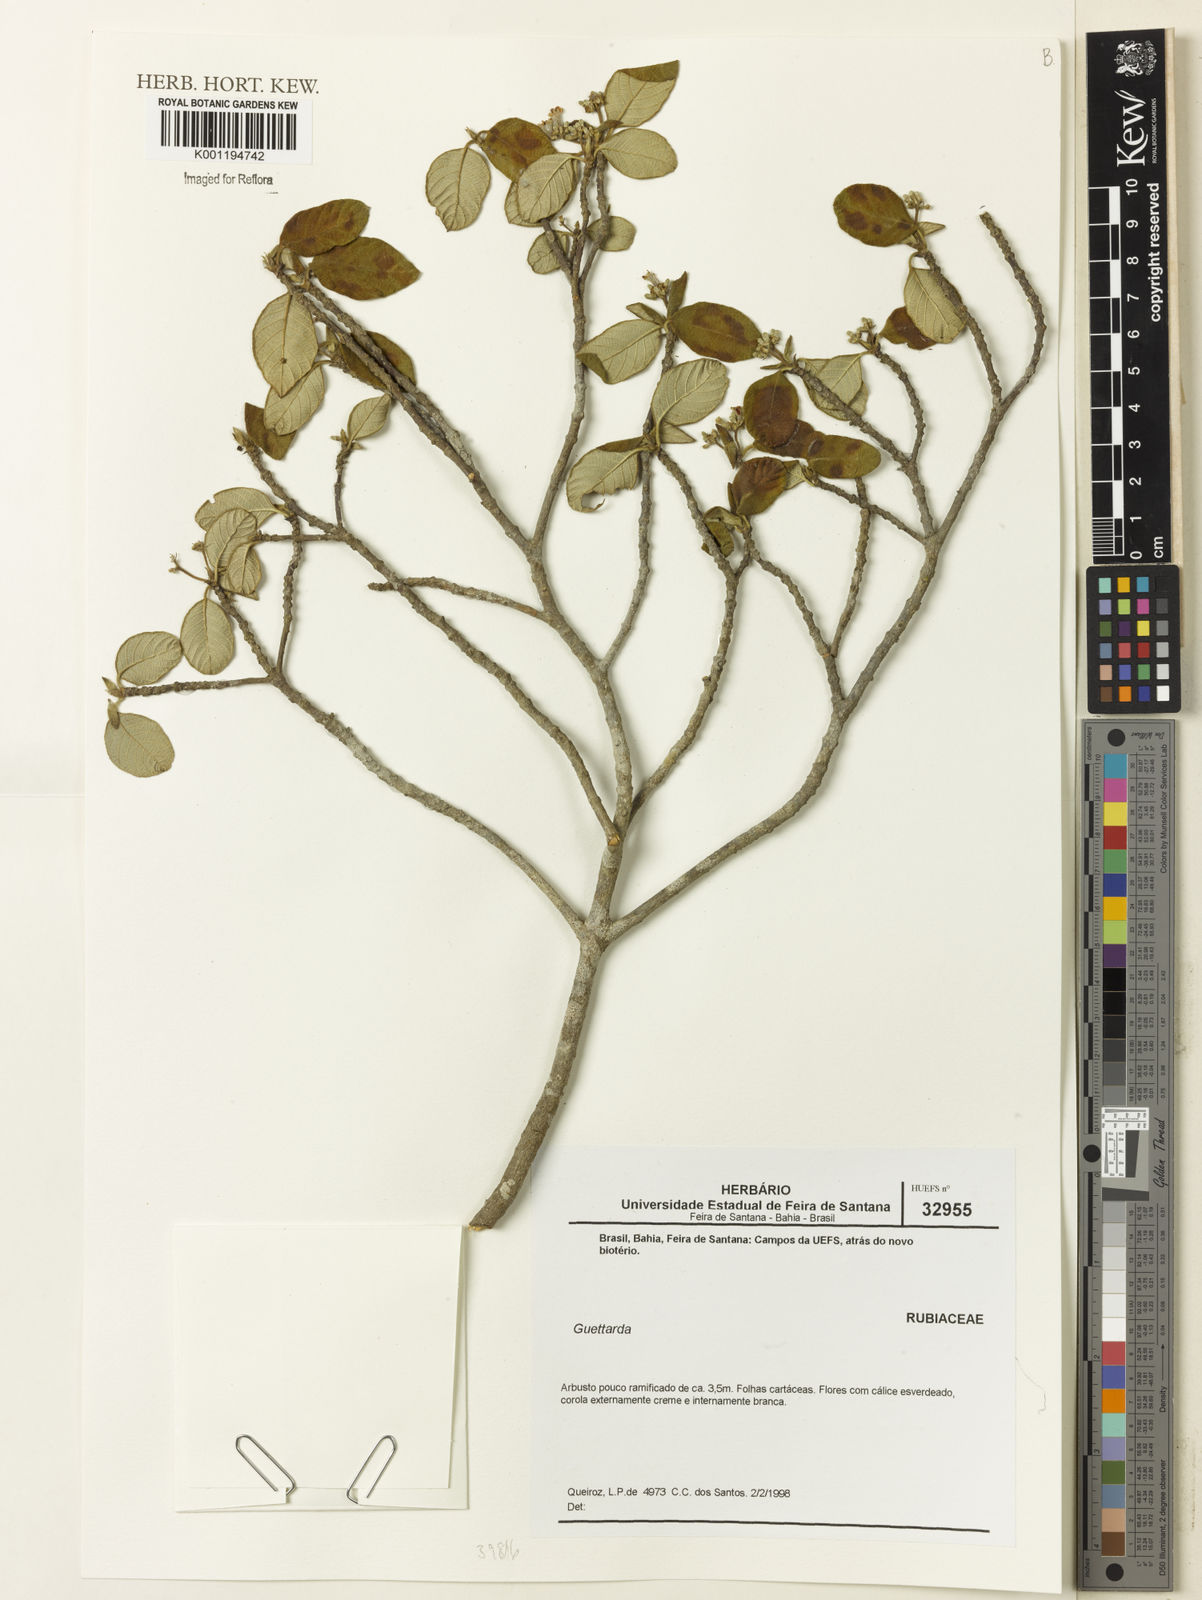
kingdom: Plantae
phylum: Tracheophyta
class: Magnoliopsida
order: Gentianales
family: Rubiaceae
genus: Guettarda
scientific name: Guettarda
